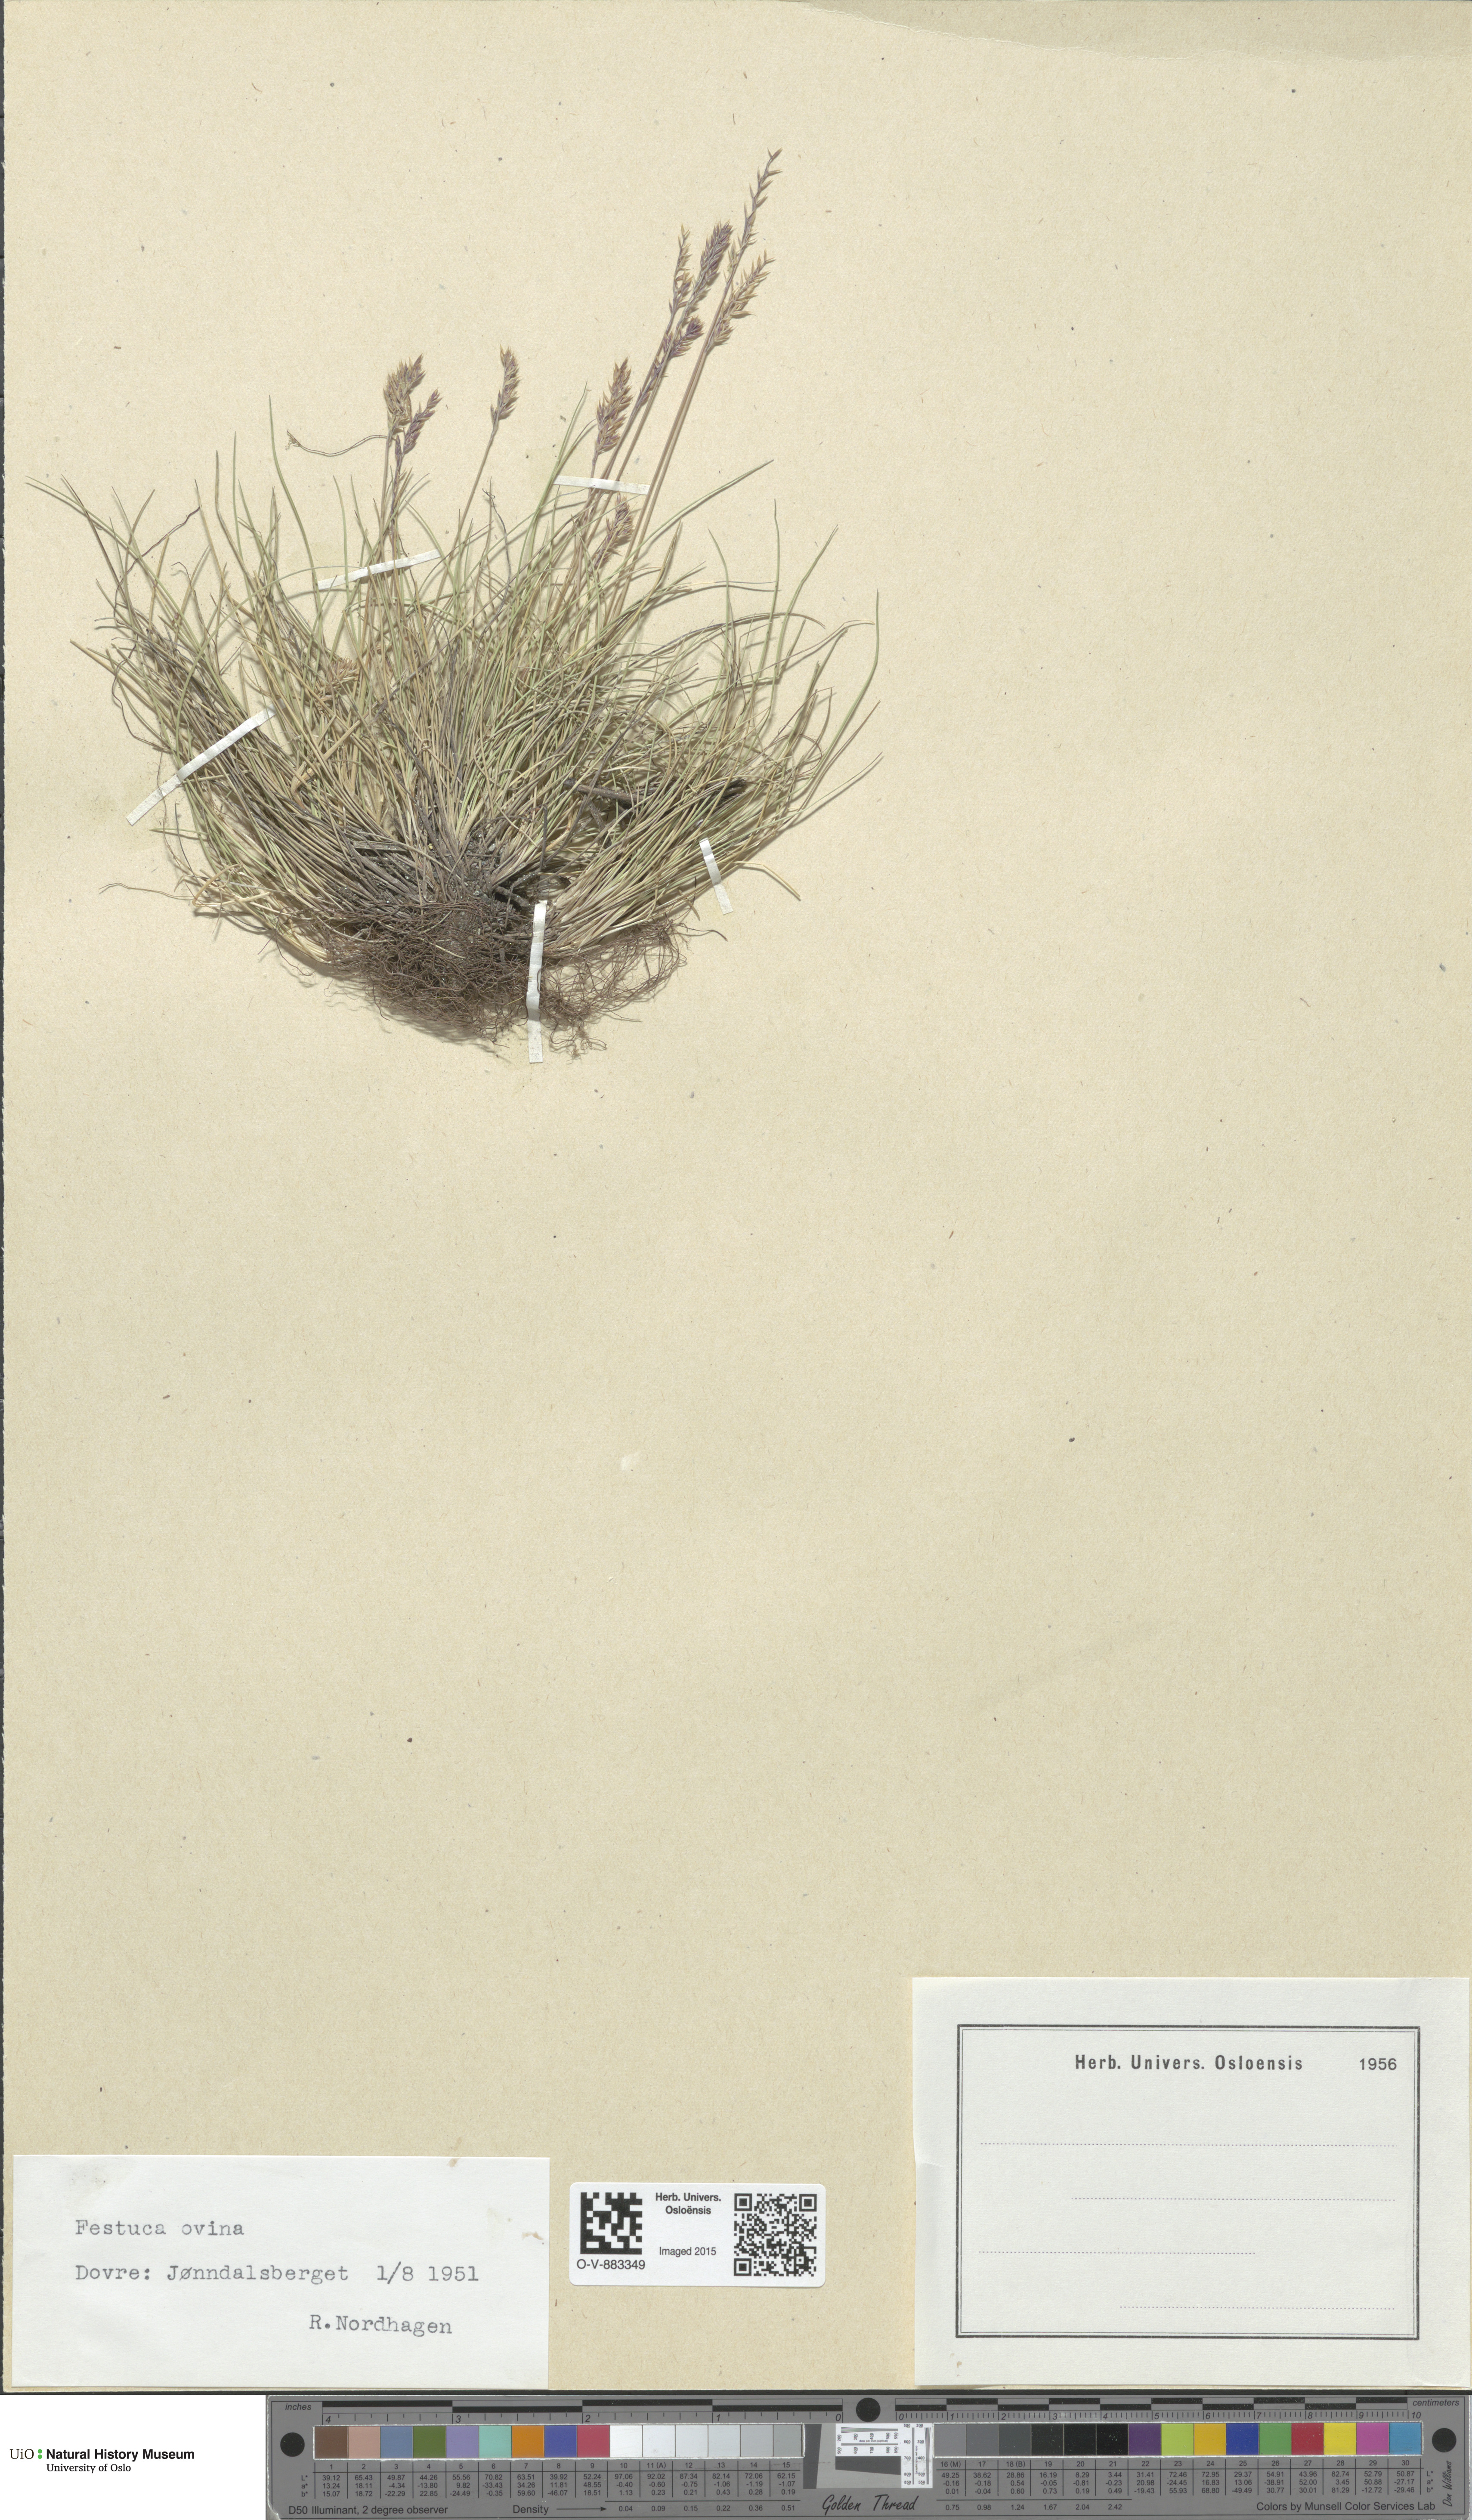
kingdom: Plantae
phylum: Tracheophyta
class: Liliopsida
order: Poales
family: Poaceae
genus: Festuca
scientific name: Festuca ovina
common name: Sheep fescue
